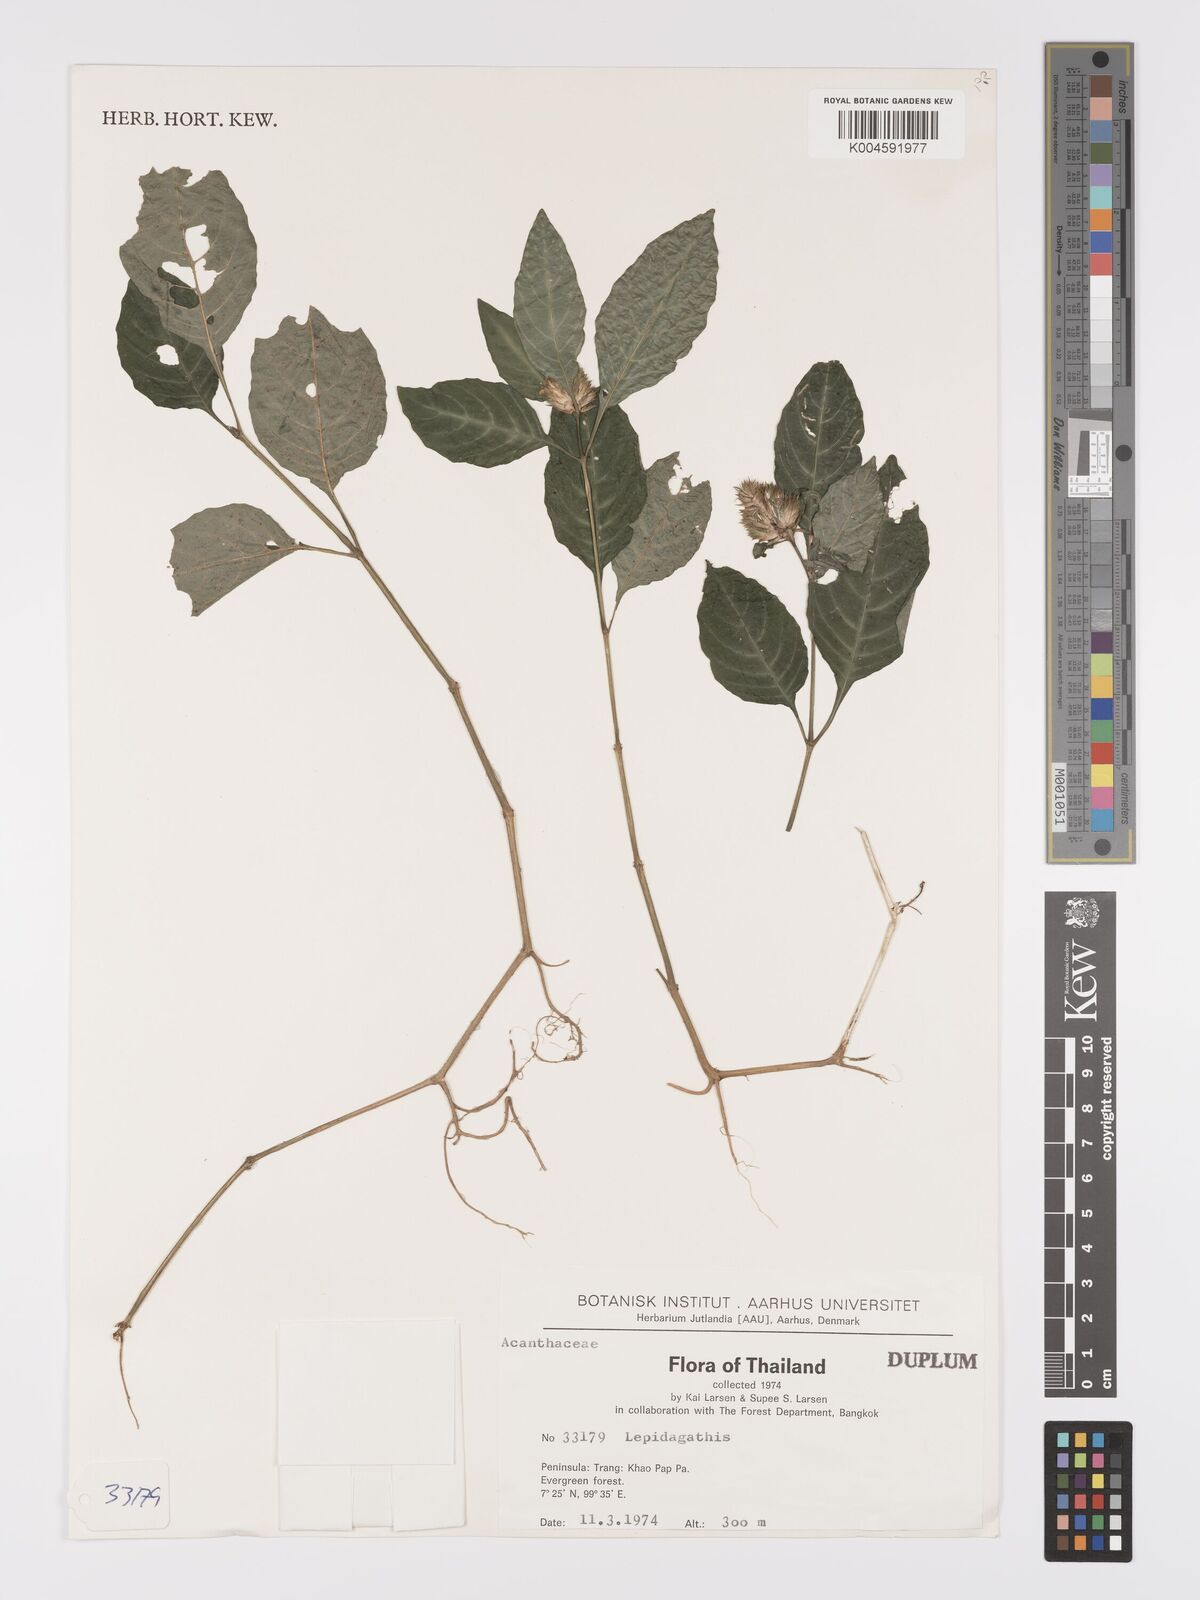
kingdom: Plantae
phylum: Tracheophyta
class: Magnoliopsida
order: Lamiales
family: Acanthaceae
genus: Lepidagathis
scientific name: Lepidagathis incurva
